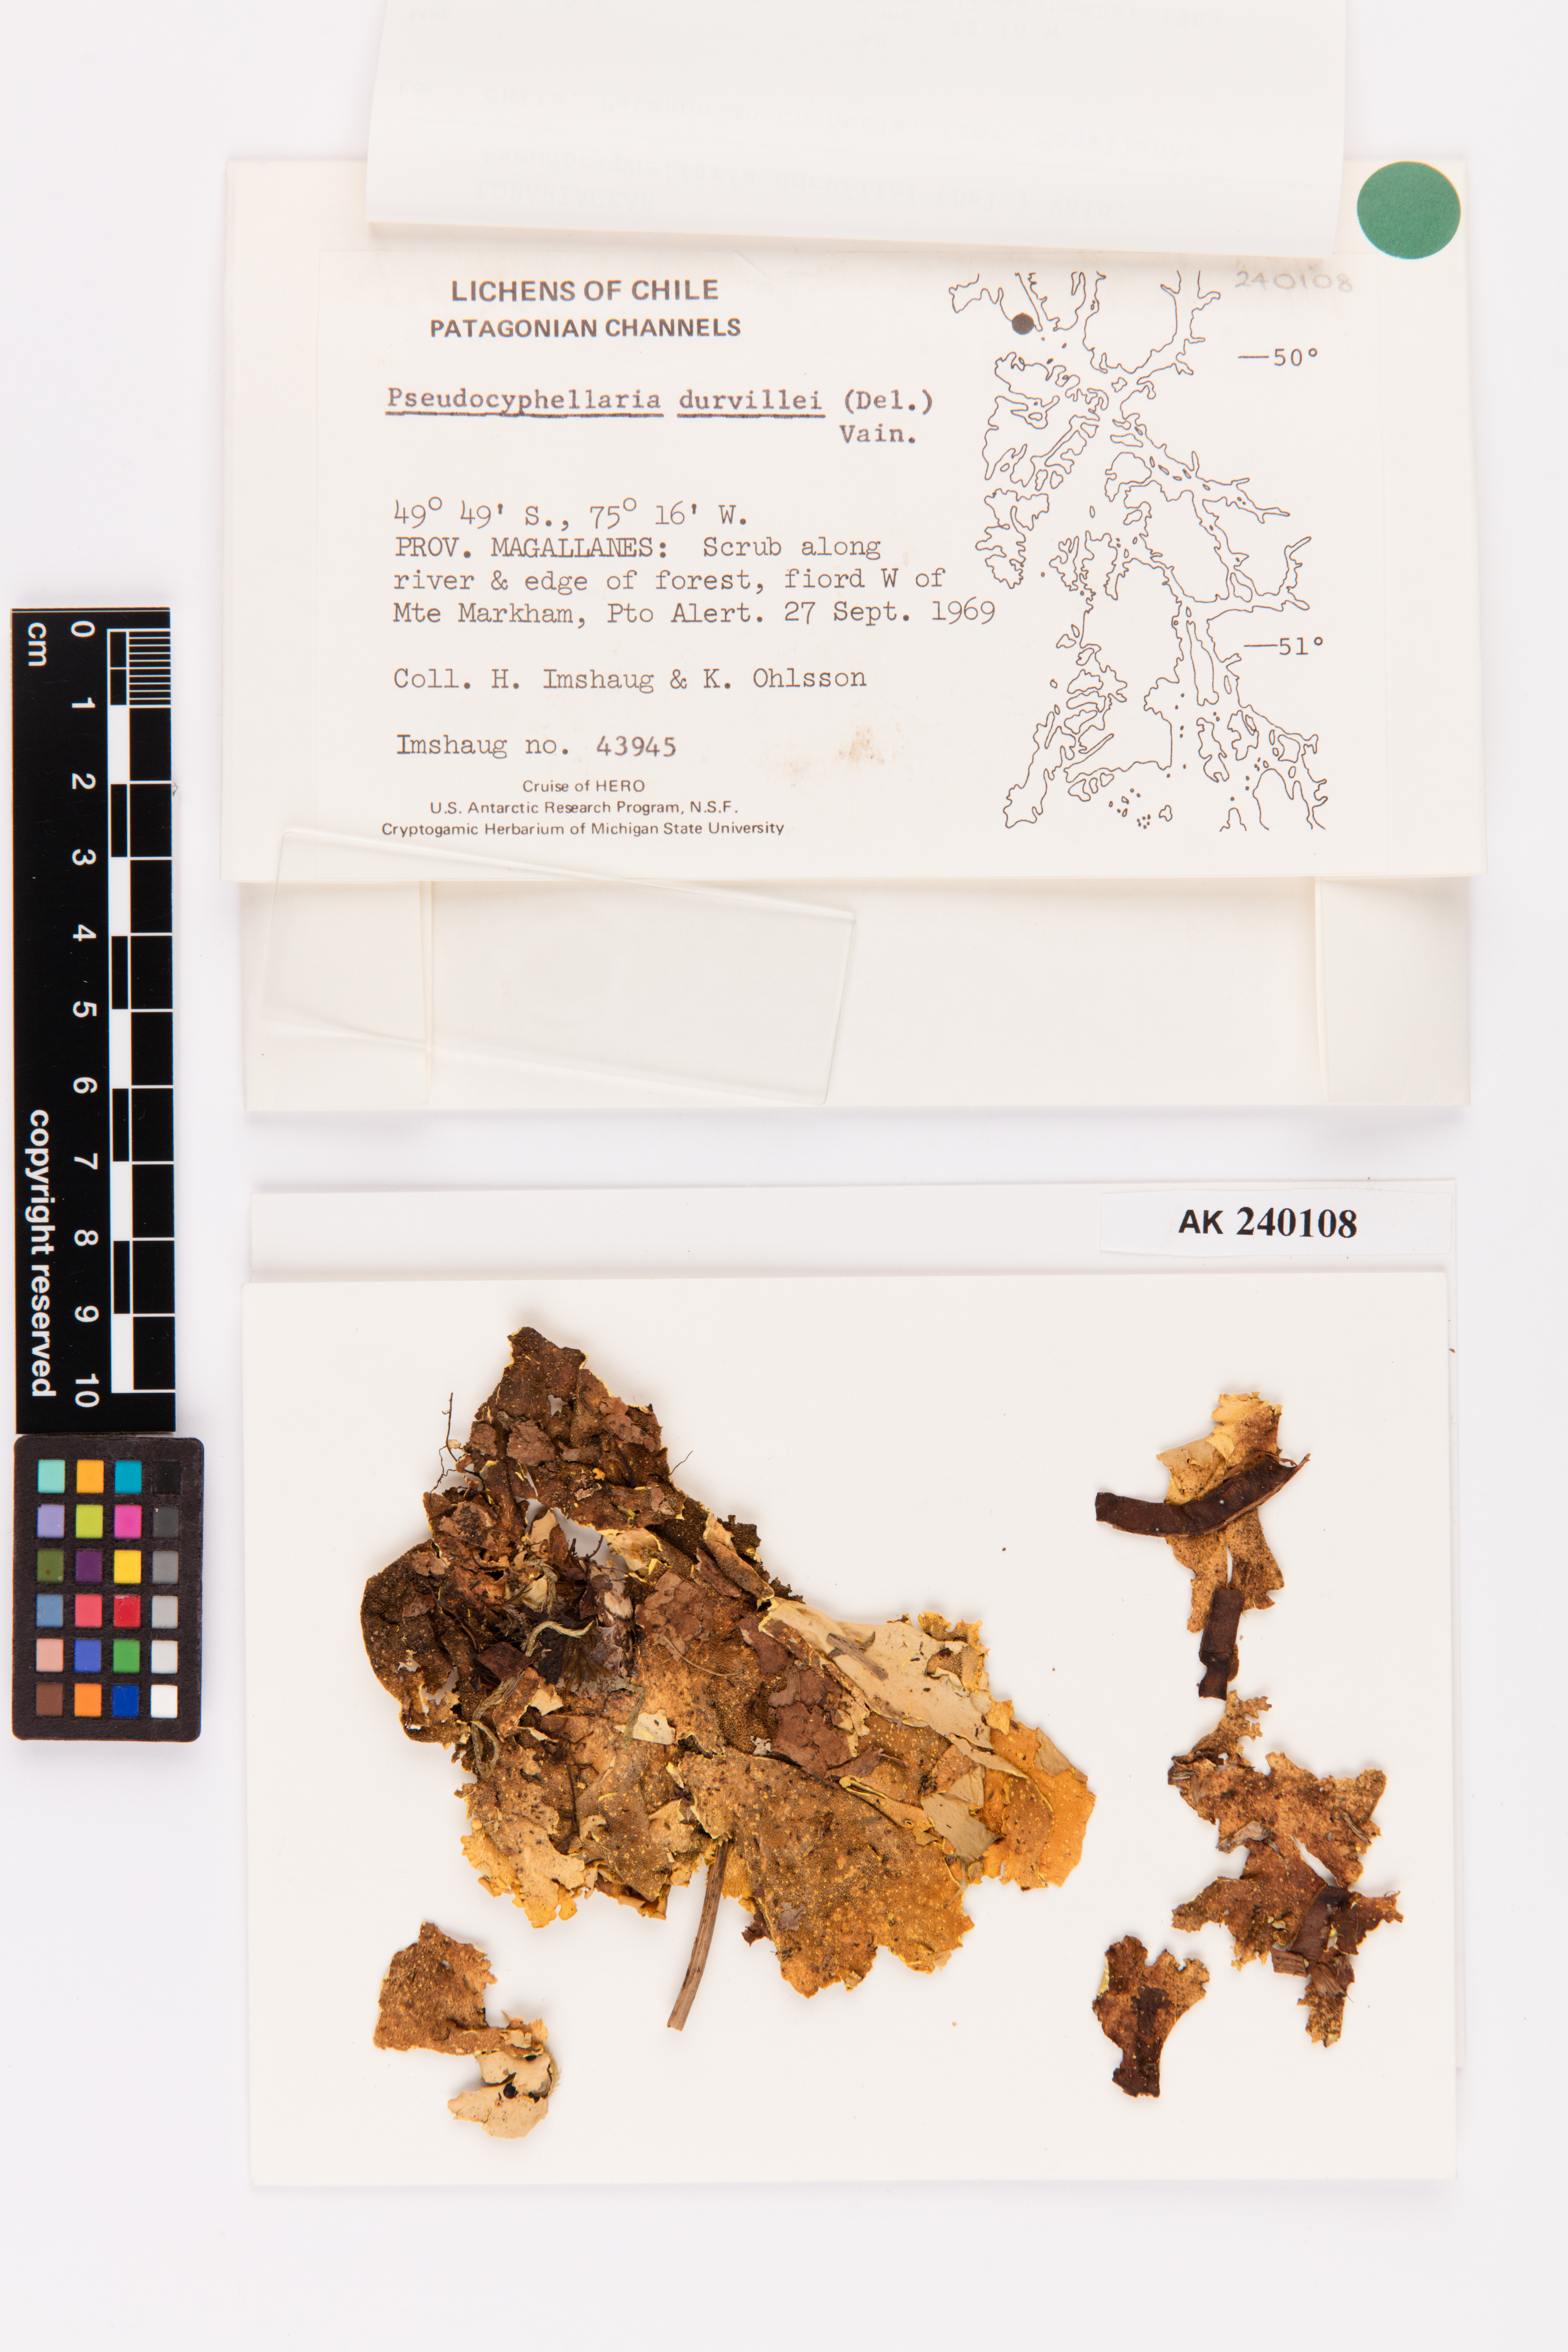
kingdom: Fungi
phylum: Ascomycota
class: Lecanoromycetes
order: Peltigerales
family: Lobariaceae
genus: Yarrumia
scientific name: Yarrumia coronata
